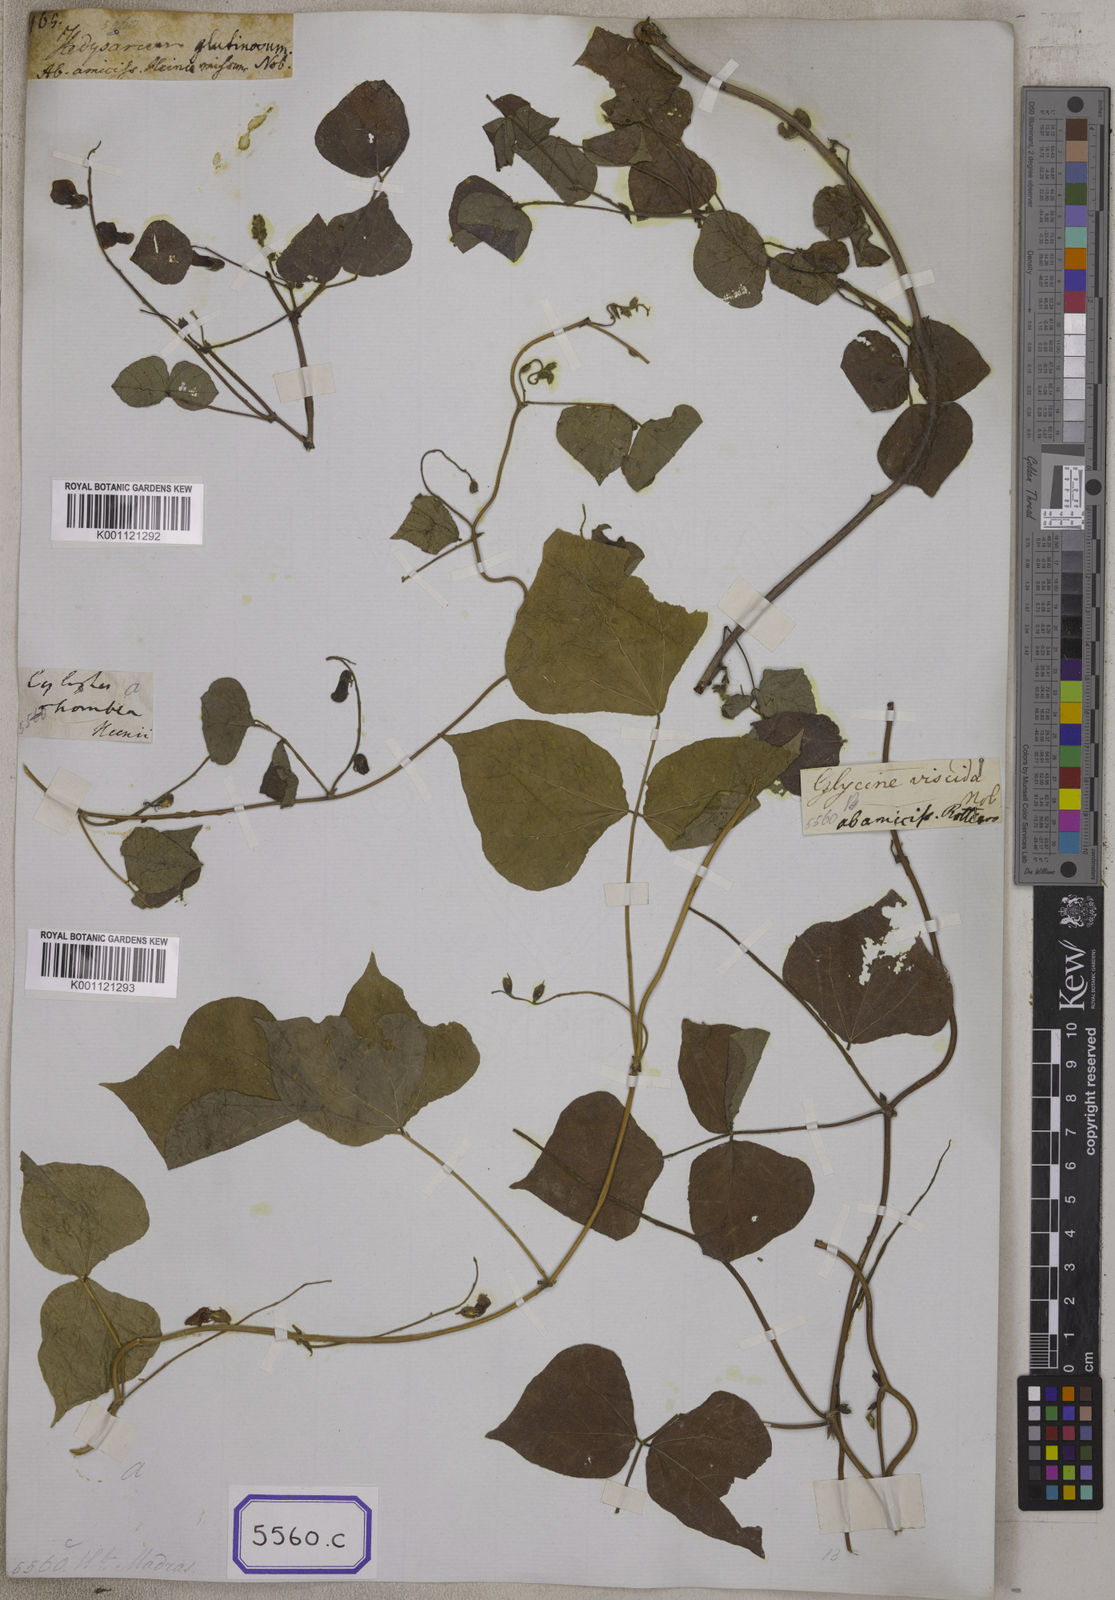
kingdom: Plantae
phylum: Tracheophyta
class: Magnoliopsida
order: Fabales
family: Fabaceae
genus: Rhynchosia
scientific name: Rhynchosia viscosa
